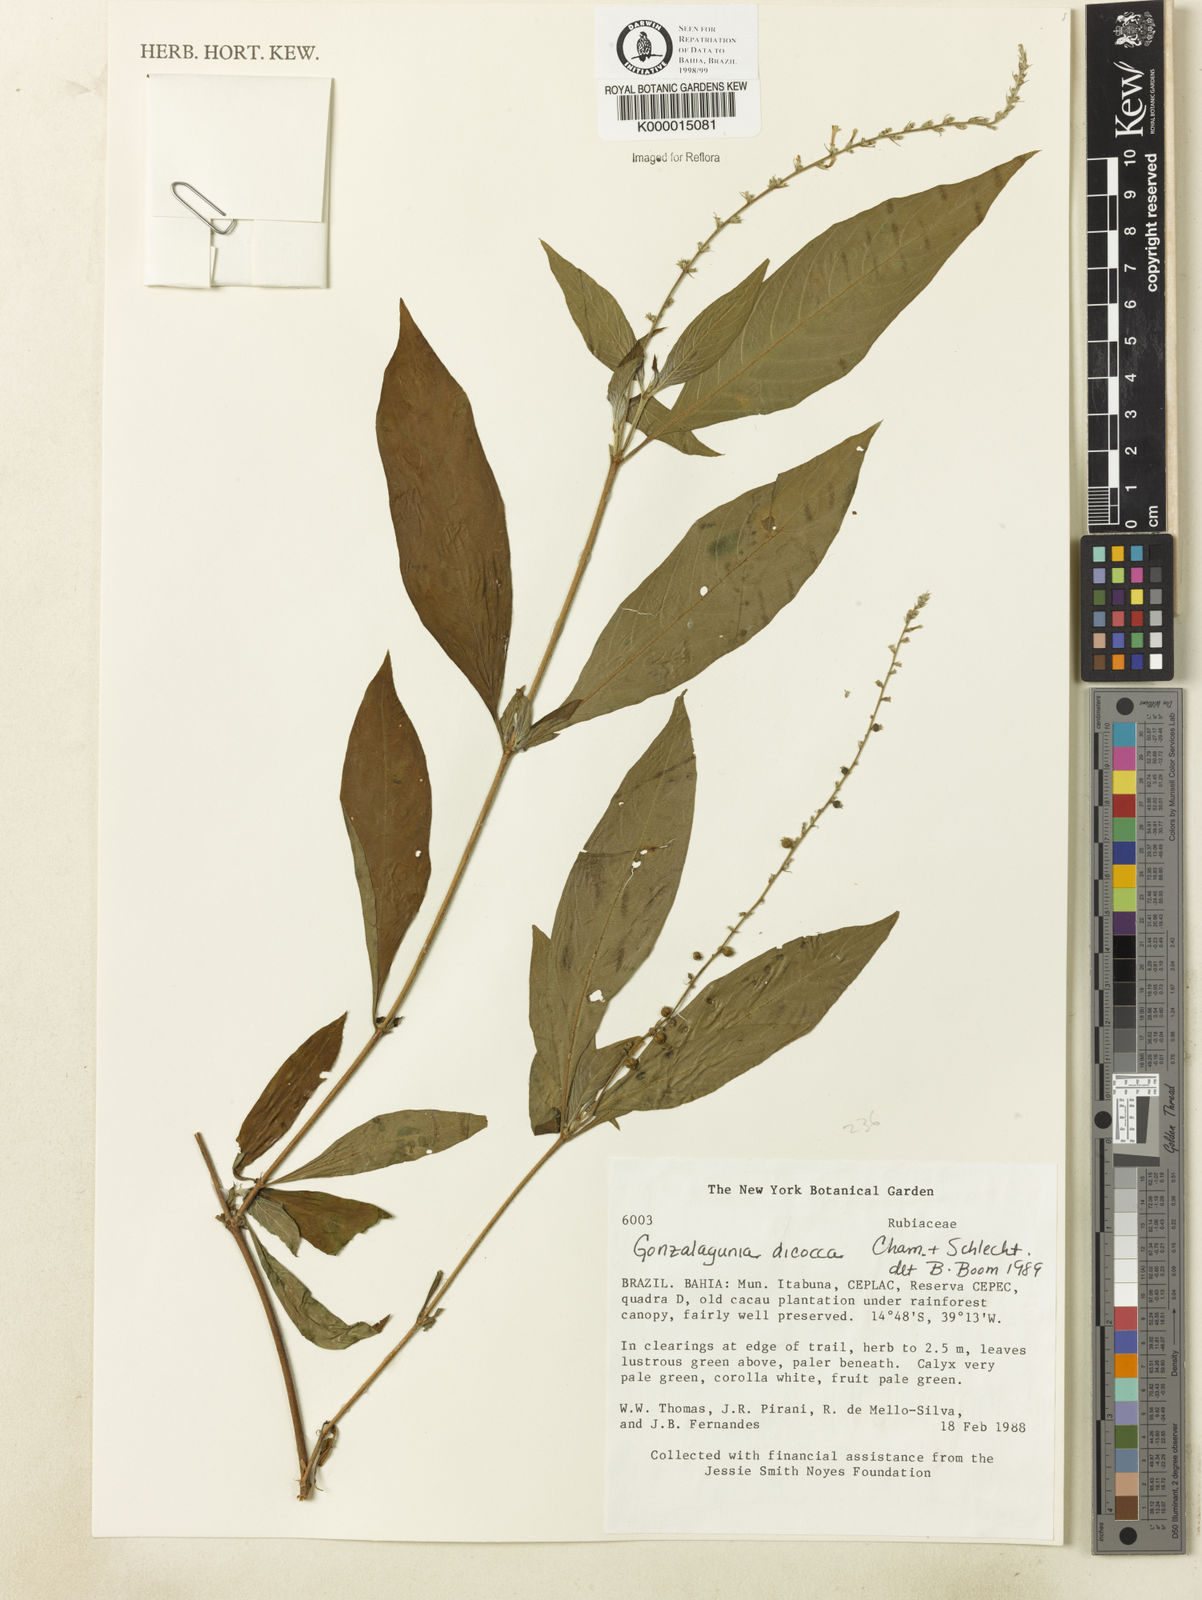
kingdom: Plantae
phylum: Tracheophyta
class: Magnoliopsida
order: Gentianales
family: Rubiaceae
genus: Gonzalagunia
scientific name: Gonzalagunia dicocca
